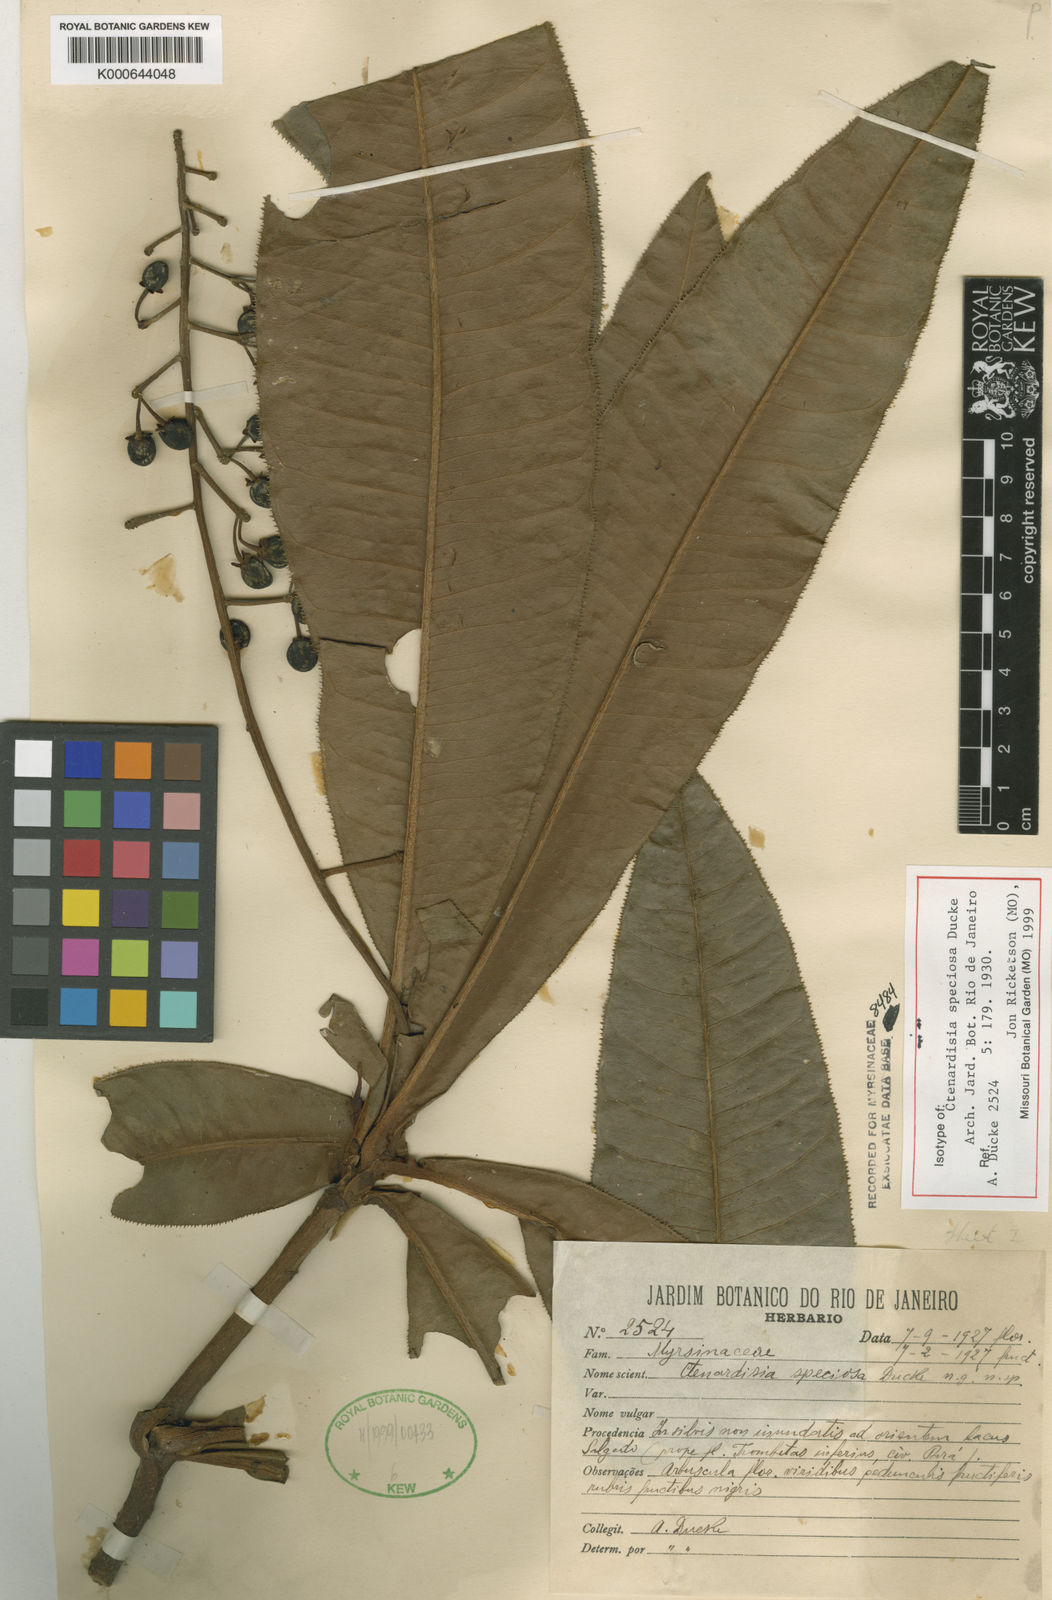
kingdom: Plantae
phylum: Tracheophyta
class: Magnoliopsida
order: Ericales
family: Primulaceae
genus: Ctenardisia
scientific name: Ctenardisia speciosa
